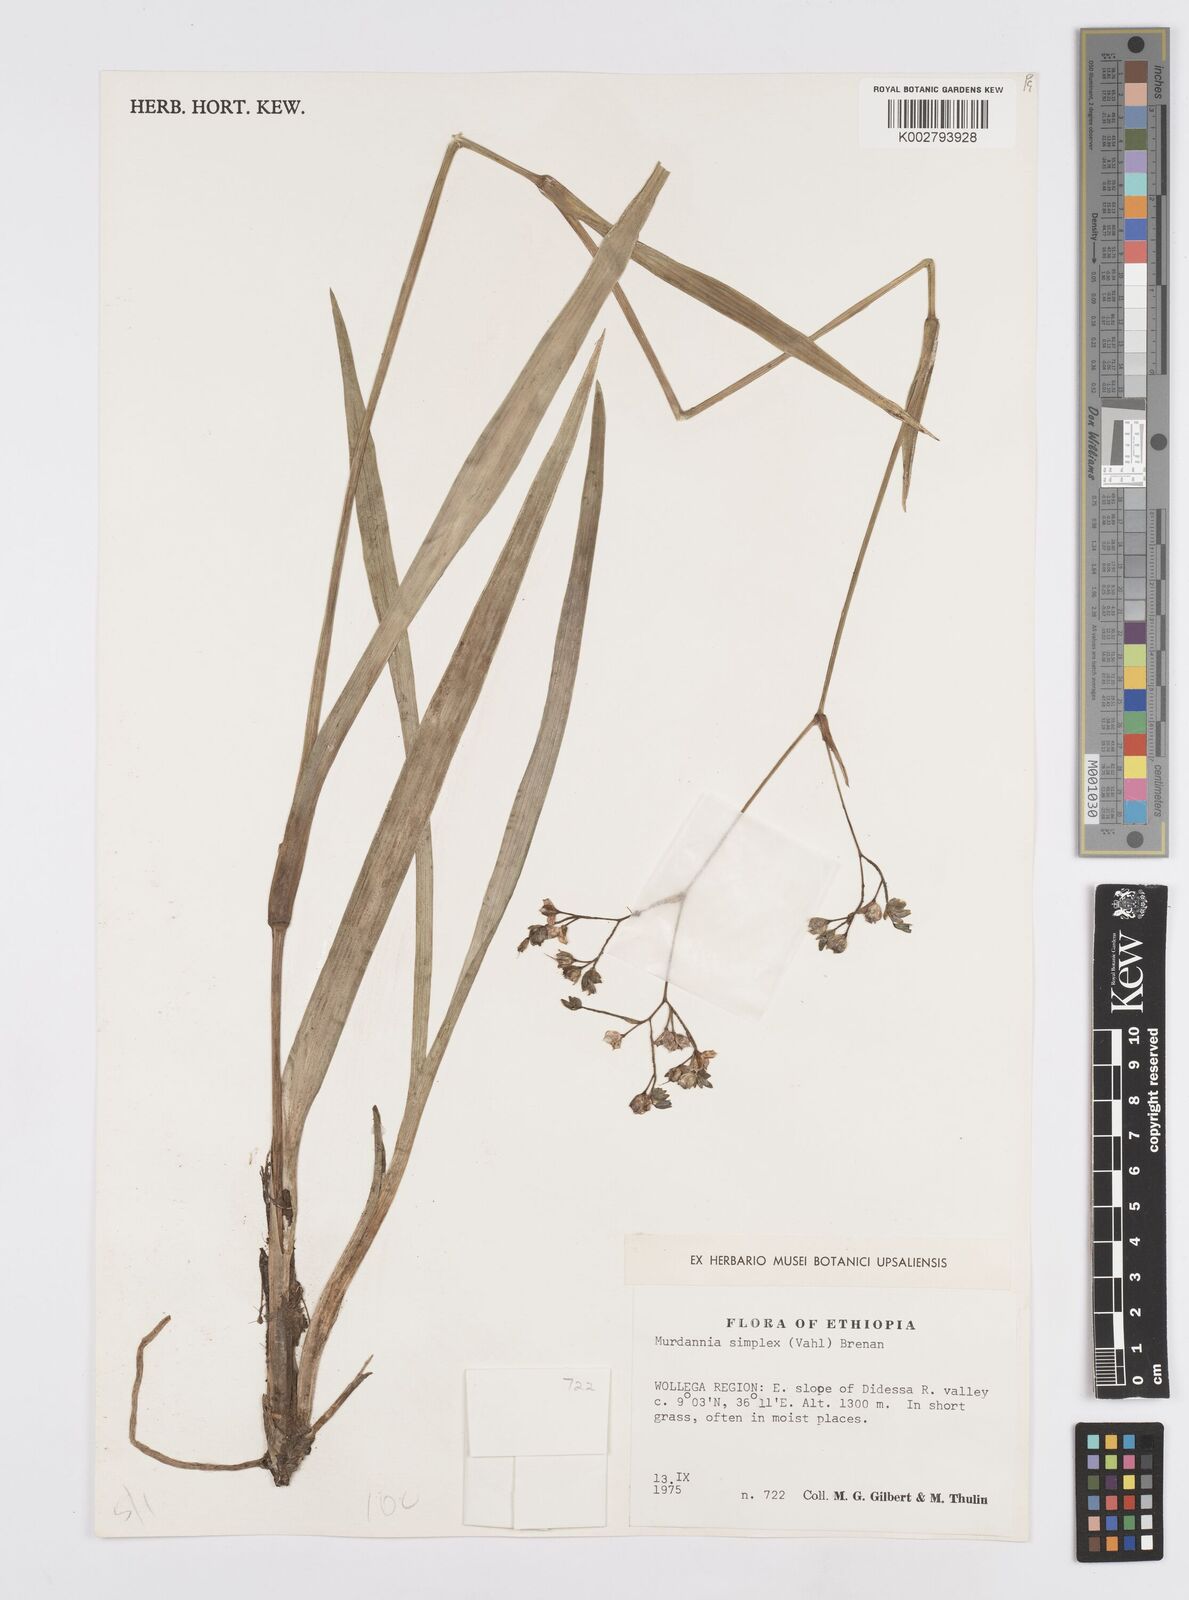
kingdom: Plantae
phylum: Tracheophyta
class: Liliopsida
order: Commelinales
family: Commelinaceae
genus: Murdannia
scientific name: Murdannia simplex
